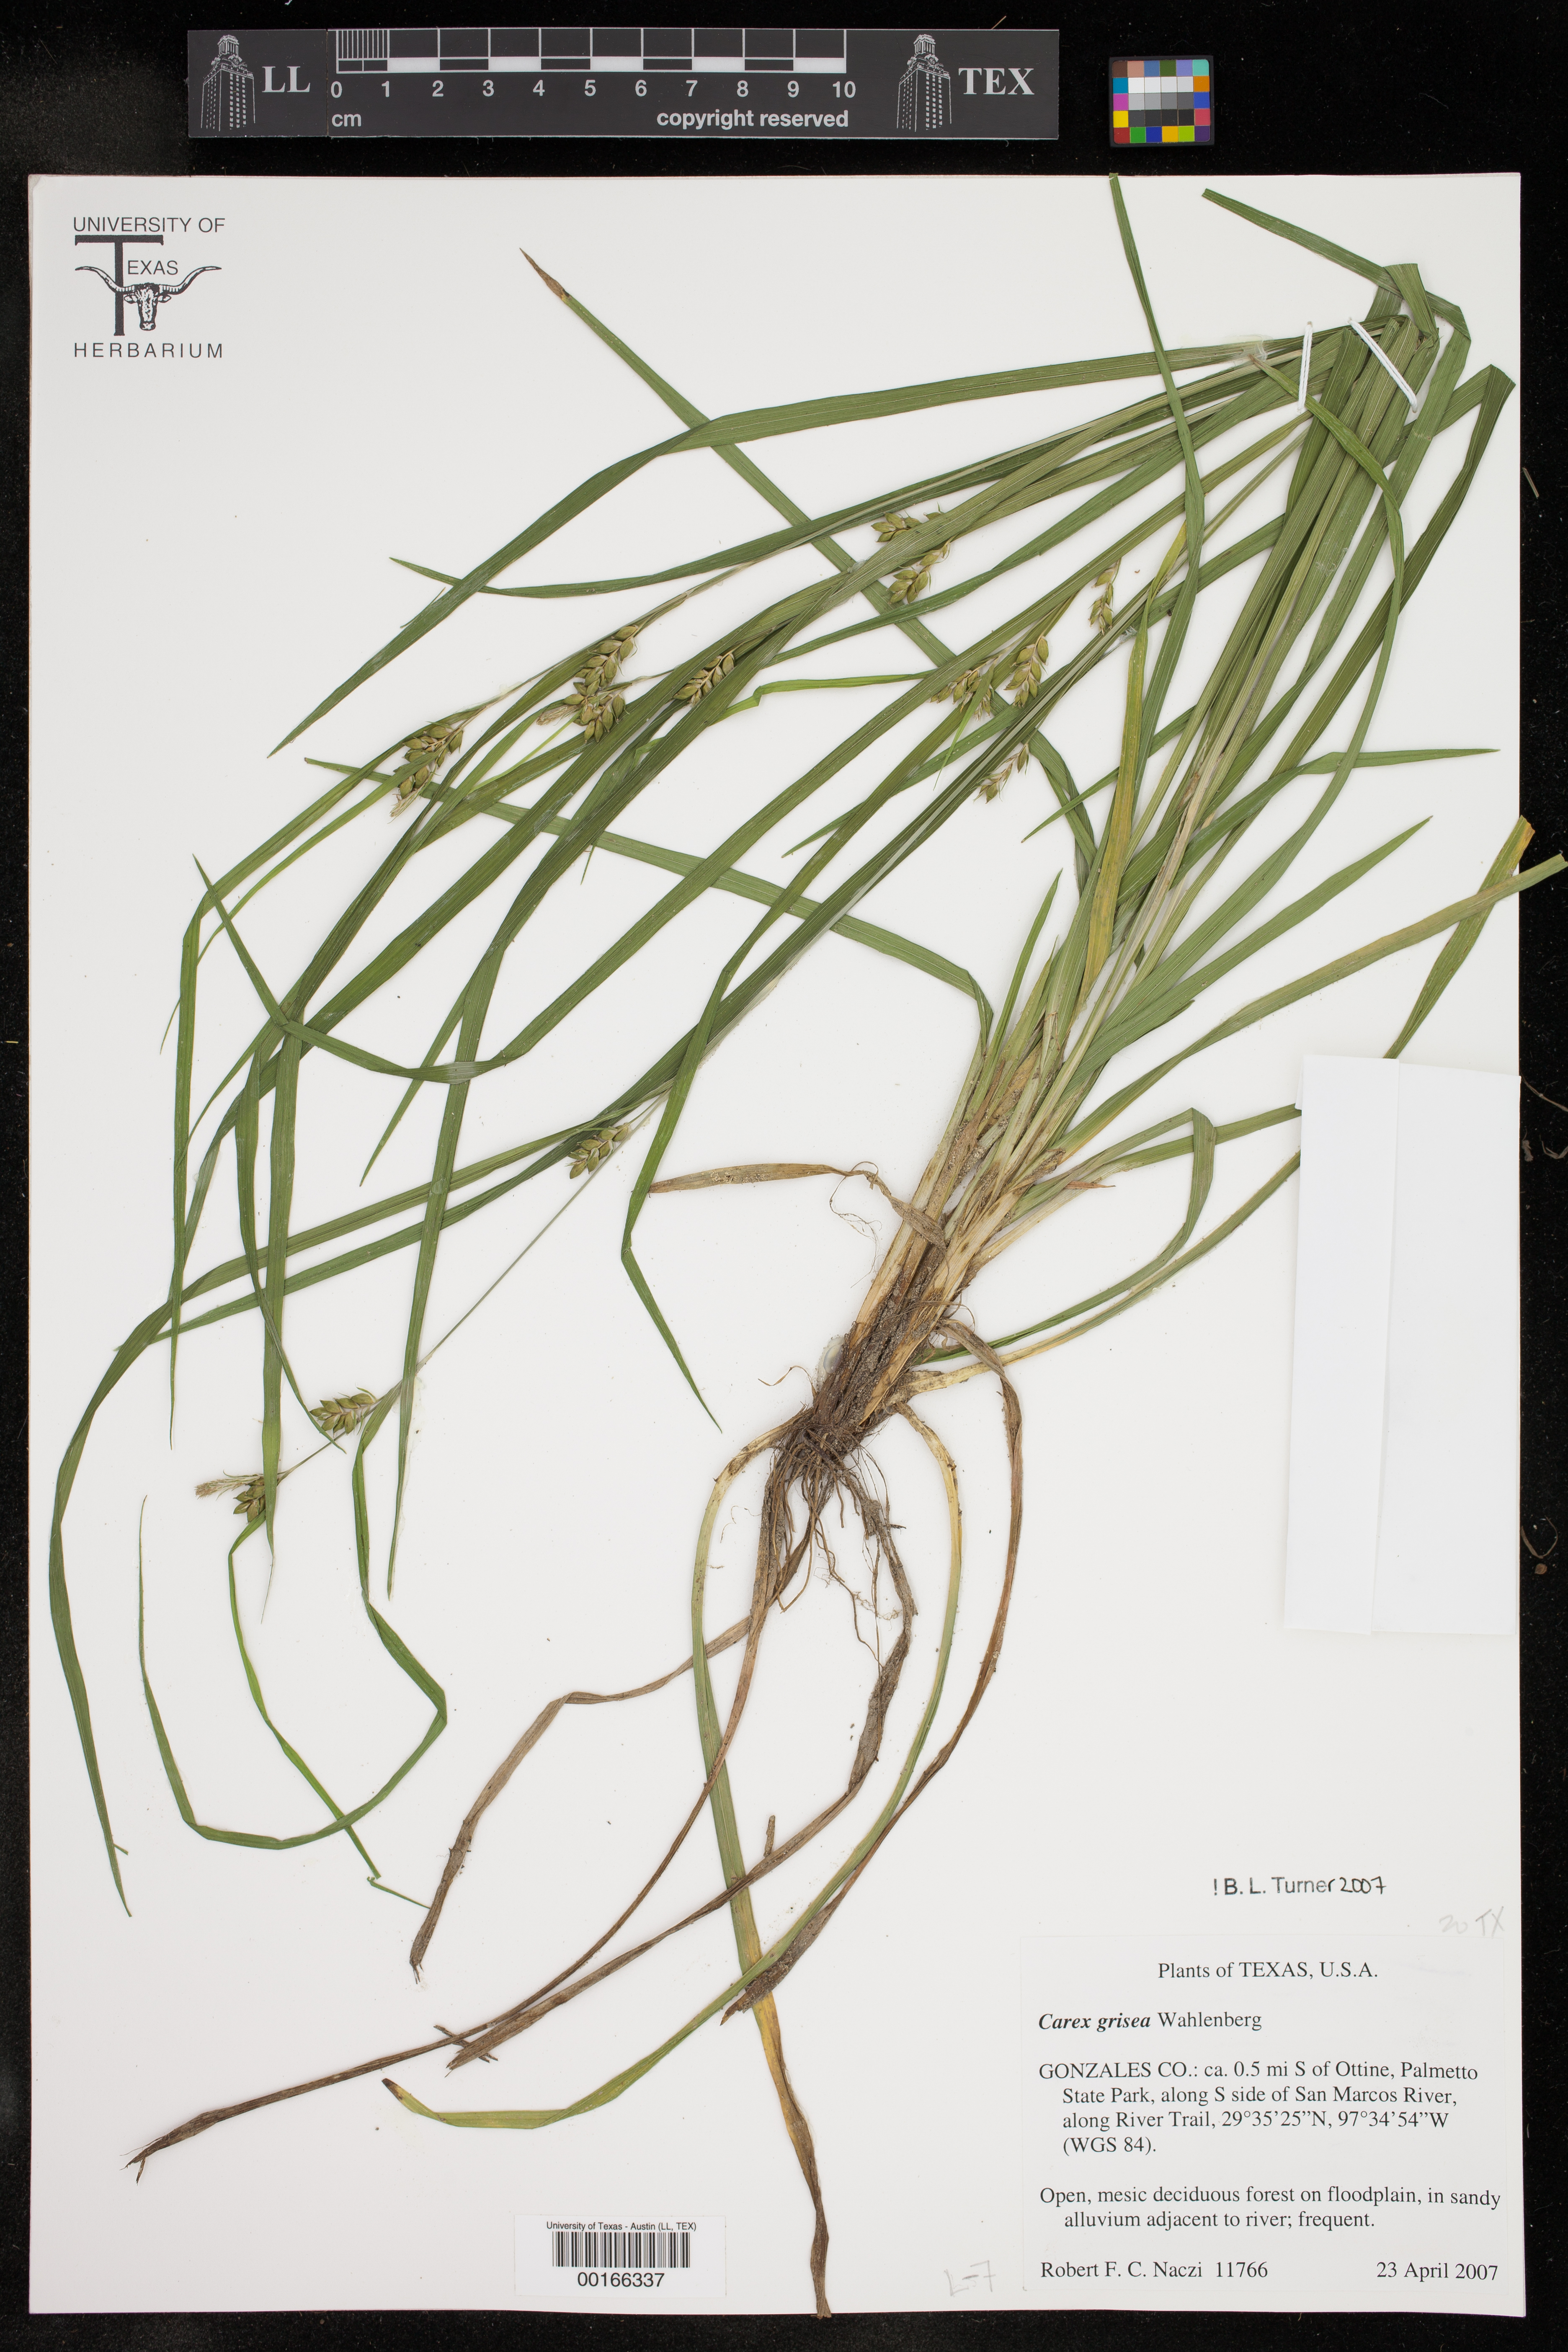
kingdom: Plantae
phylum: Tracheophyta
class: Liliopsida
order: Poales
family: Cyperaceae
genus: Carex
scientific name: Carex grisea
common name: Eastern narrow-leaved sedge
